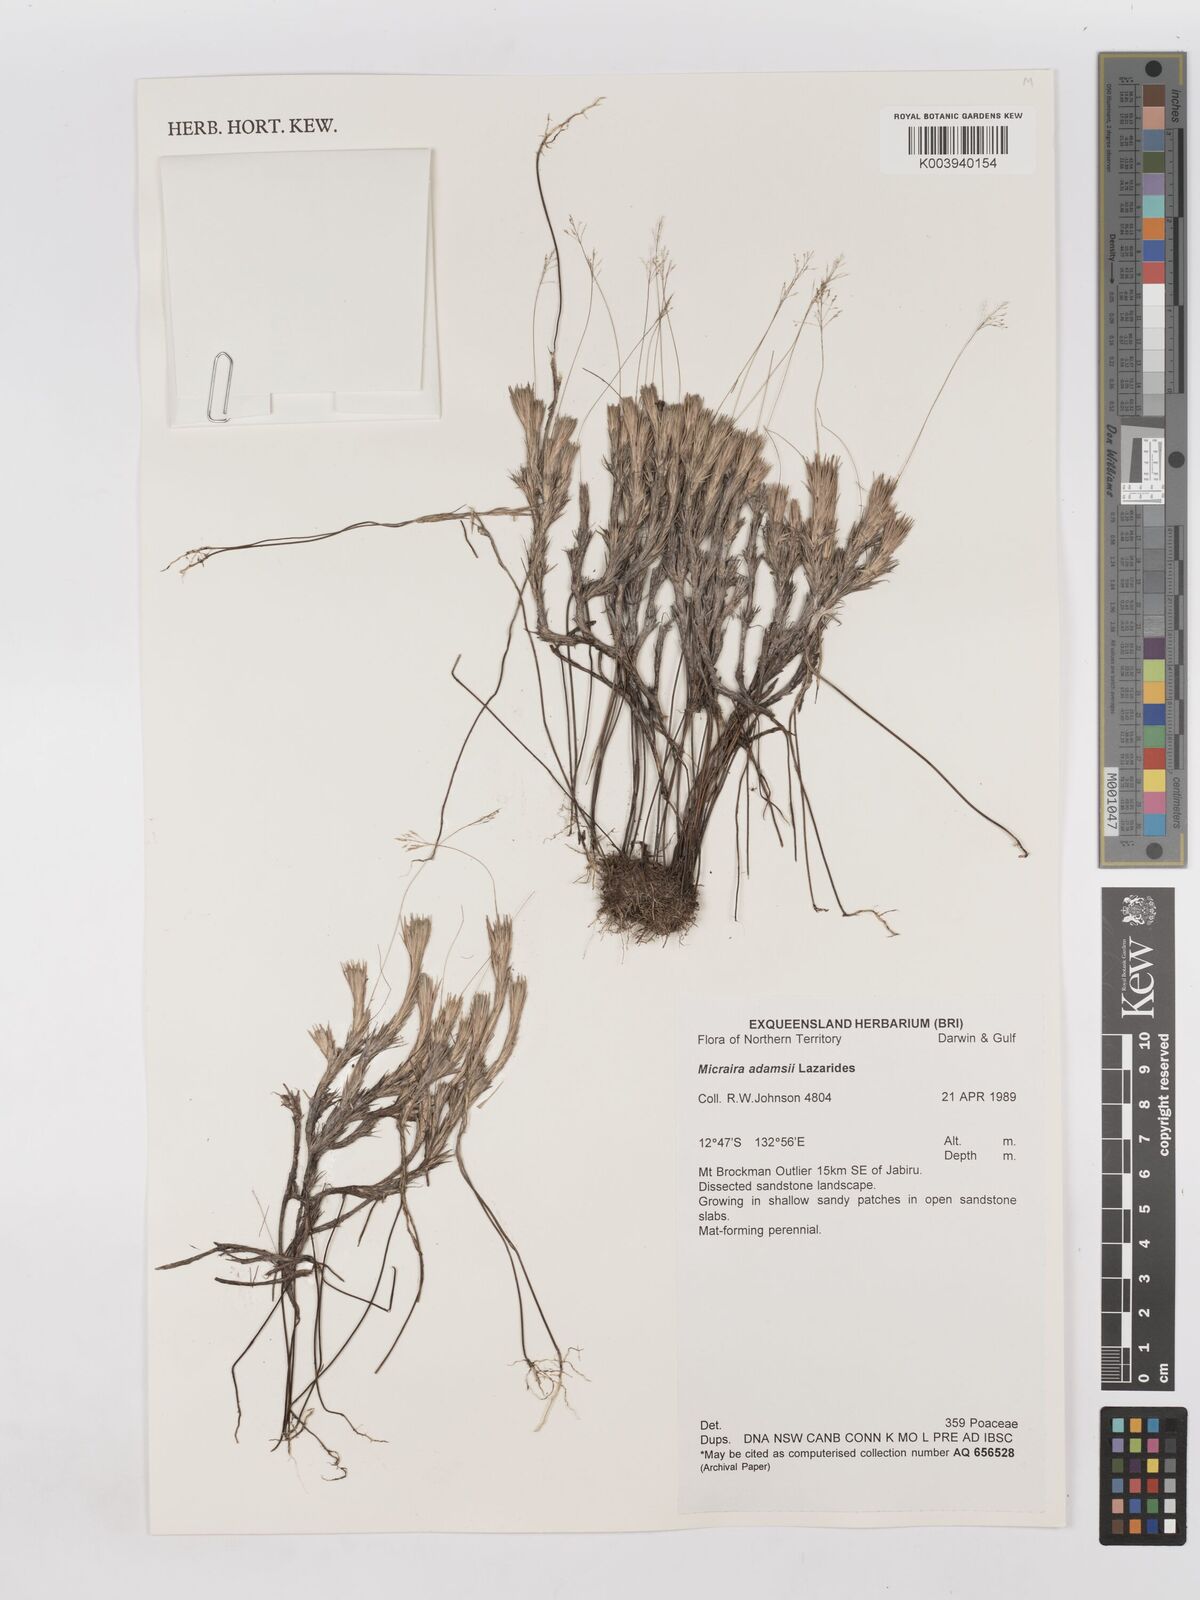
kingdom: Plantae
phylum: Tracheophyta
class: Liliopsida
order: Poales
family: Poaceae
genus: Micraira
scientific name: Micraira adamsii
